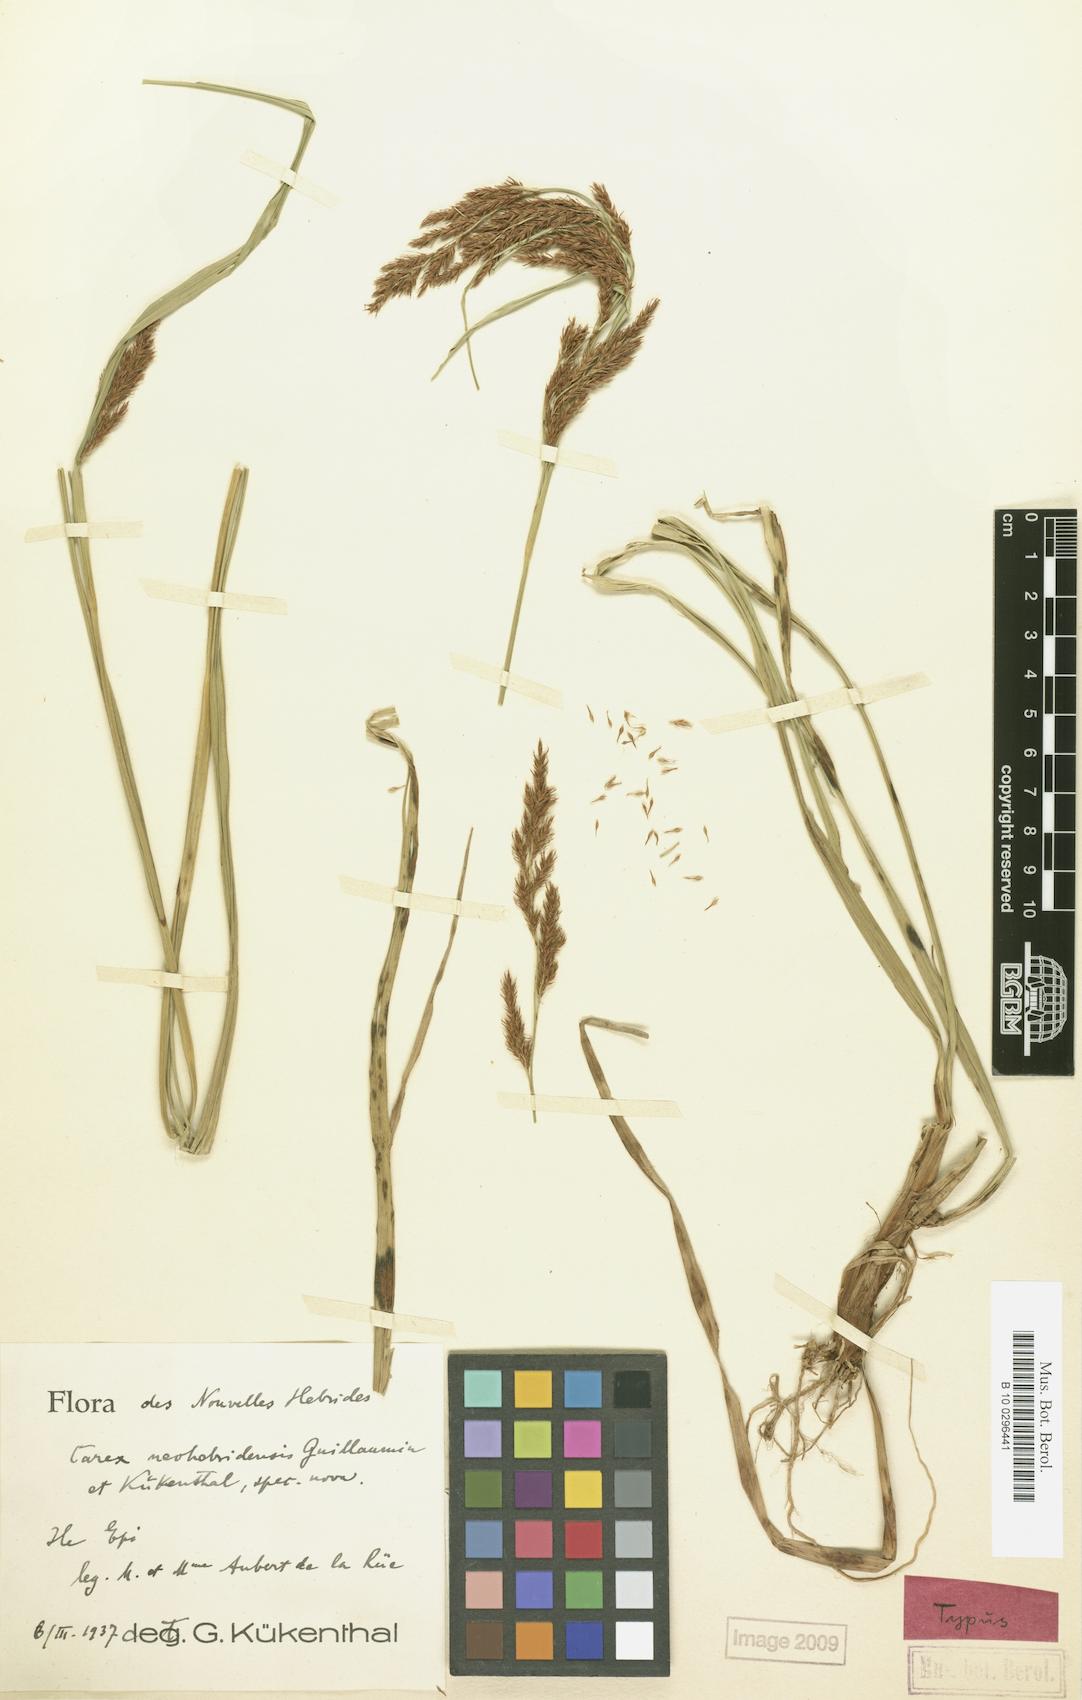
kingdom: Plantae
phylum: Tracheophyta
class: Liliopsida
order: Poales
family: Cyperaceae
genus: Carex
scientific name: Carex neohebridensis
